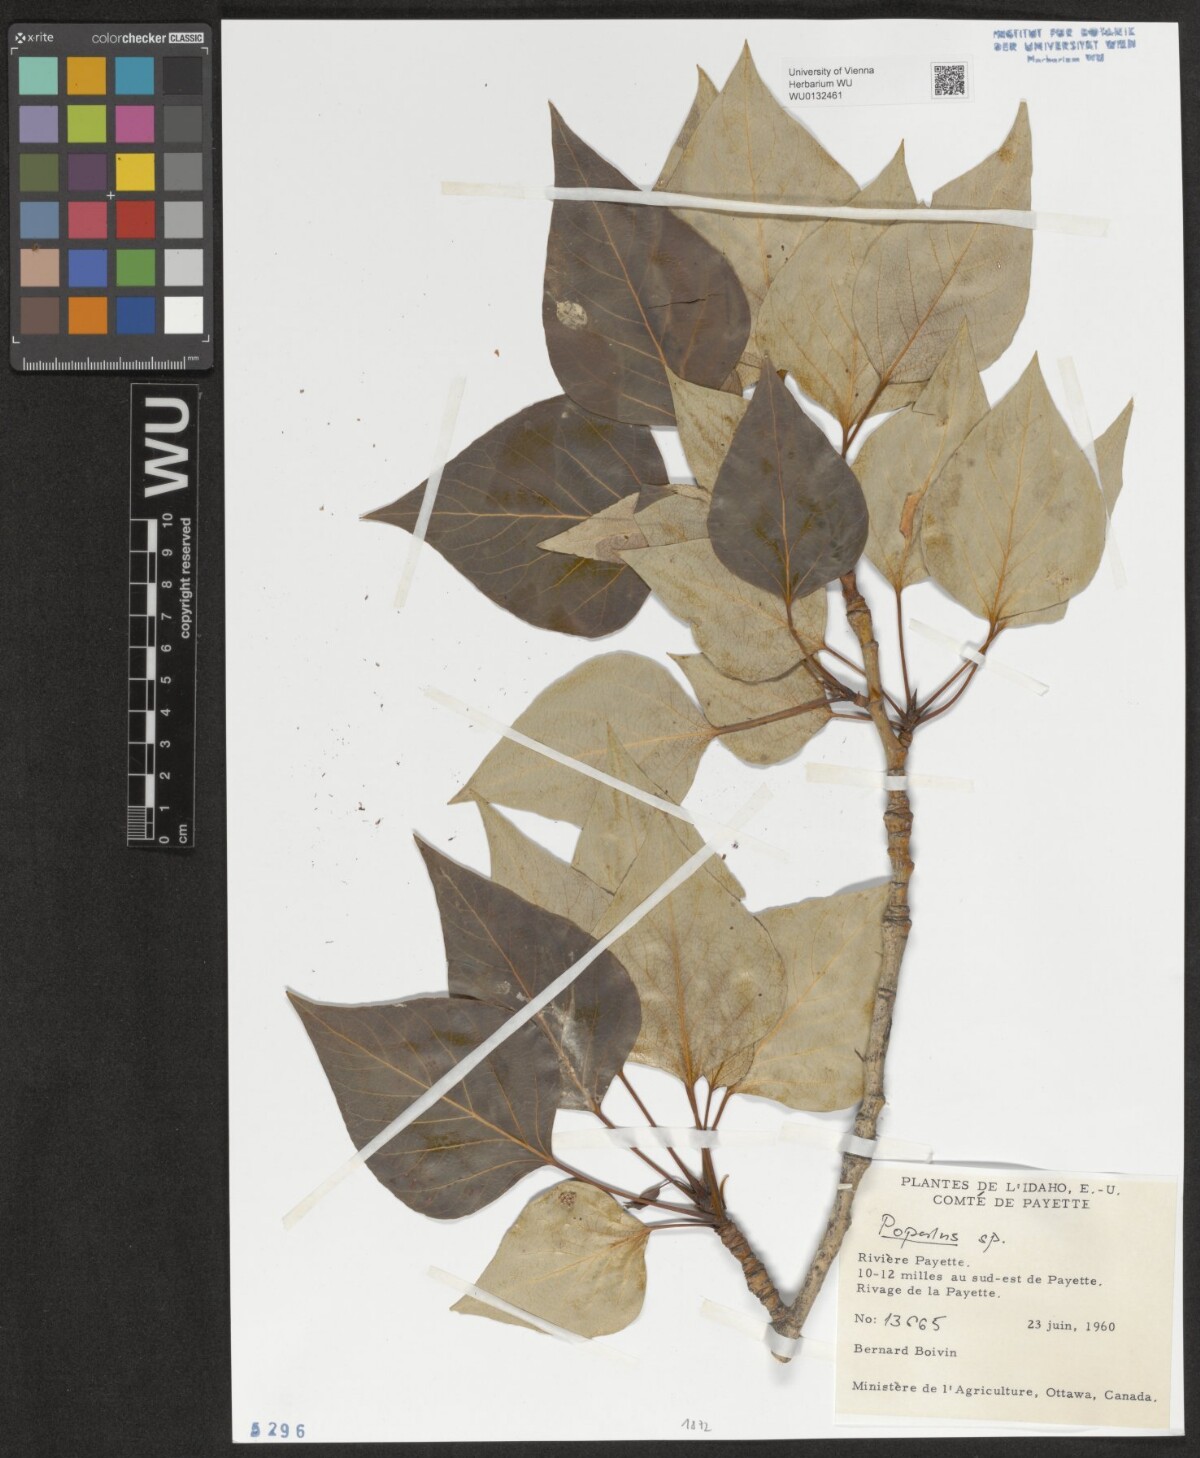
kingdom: Plantae
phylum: Tracheophyta
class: Magnoliopsida
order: Malpighiales
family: Salicaceae
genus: Populus
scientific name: Populus
